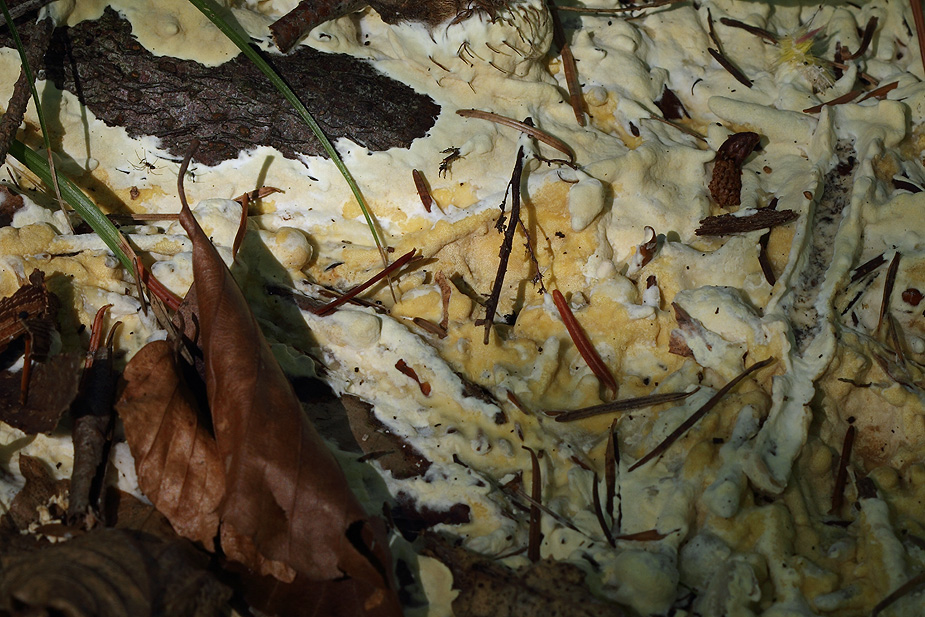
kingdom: Fungi
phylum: Ascomycota
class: Sordariomycetes
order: Hypocreales
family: Hypocreaceae
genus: Trichoderma
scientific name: Trichoderma citrinum
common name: udbredt kødkerne
